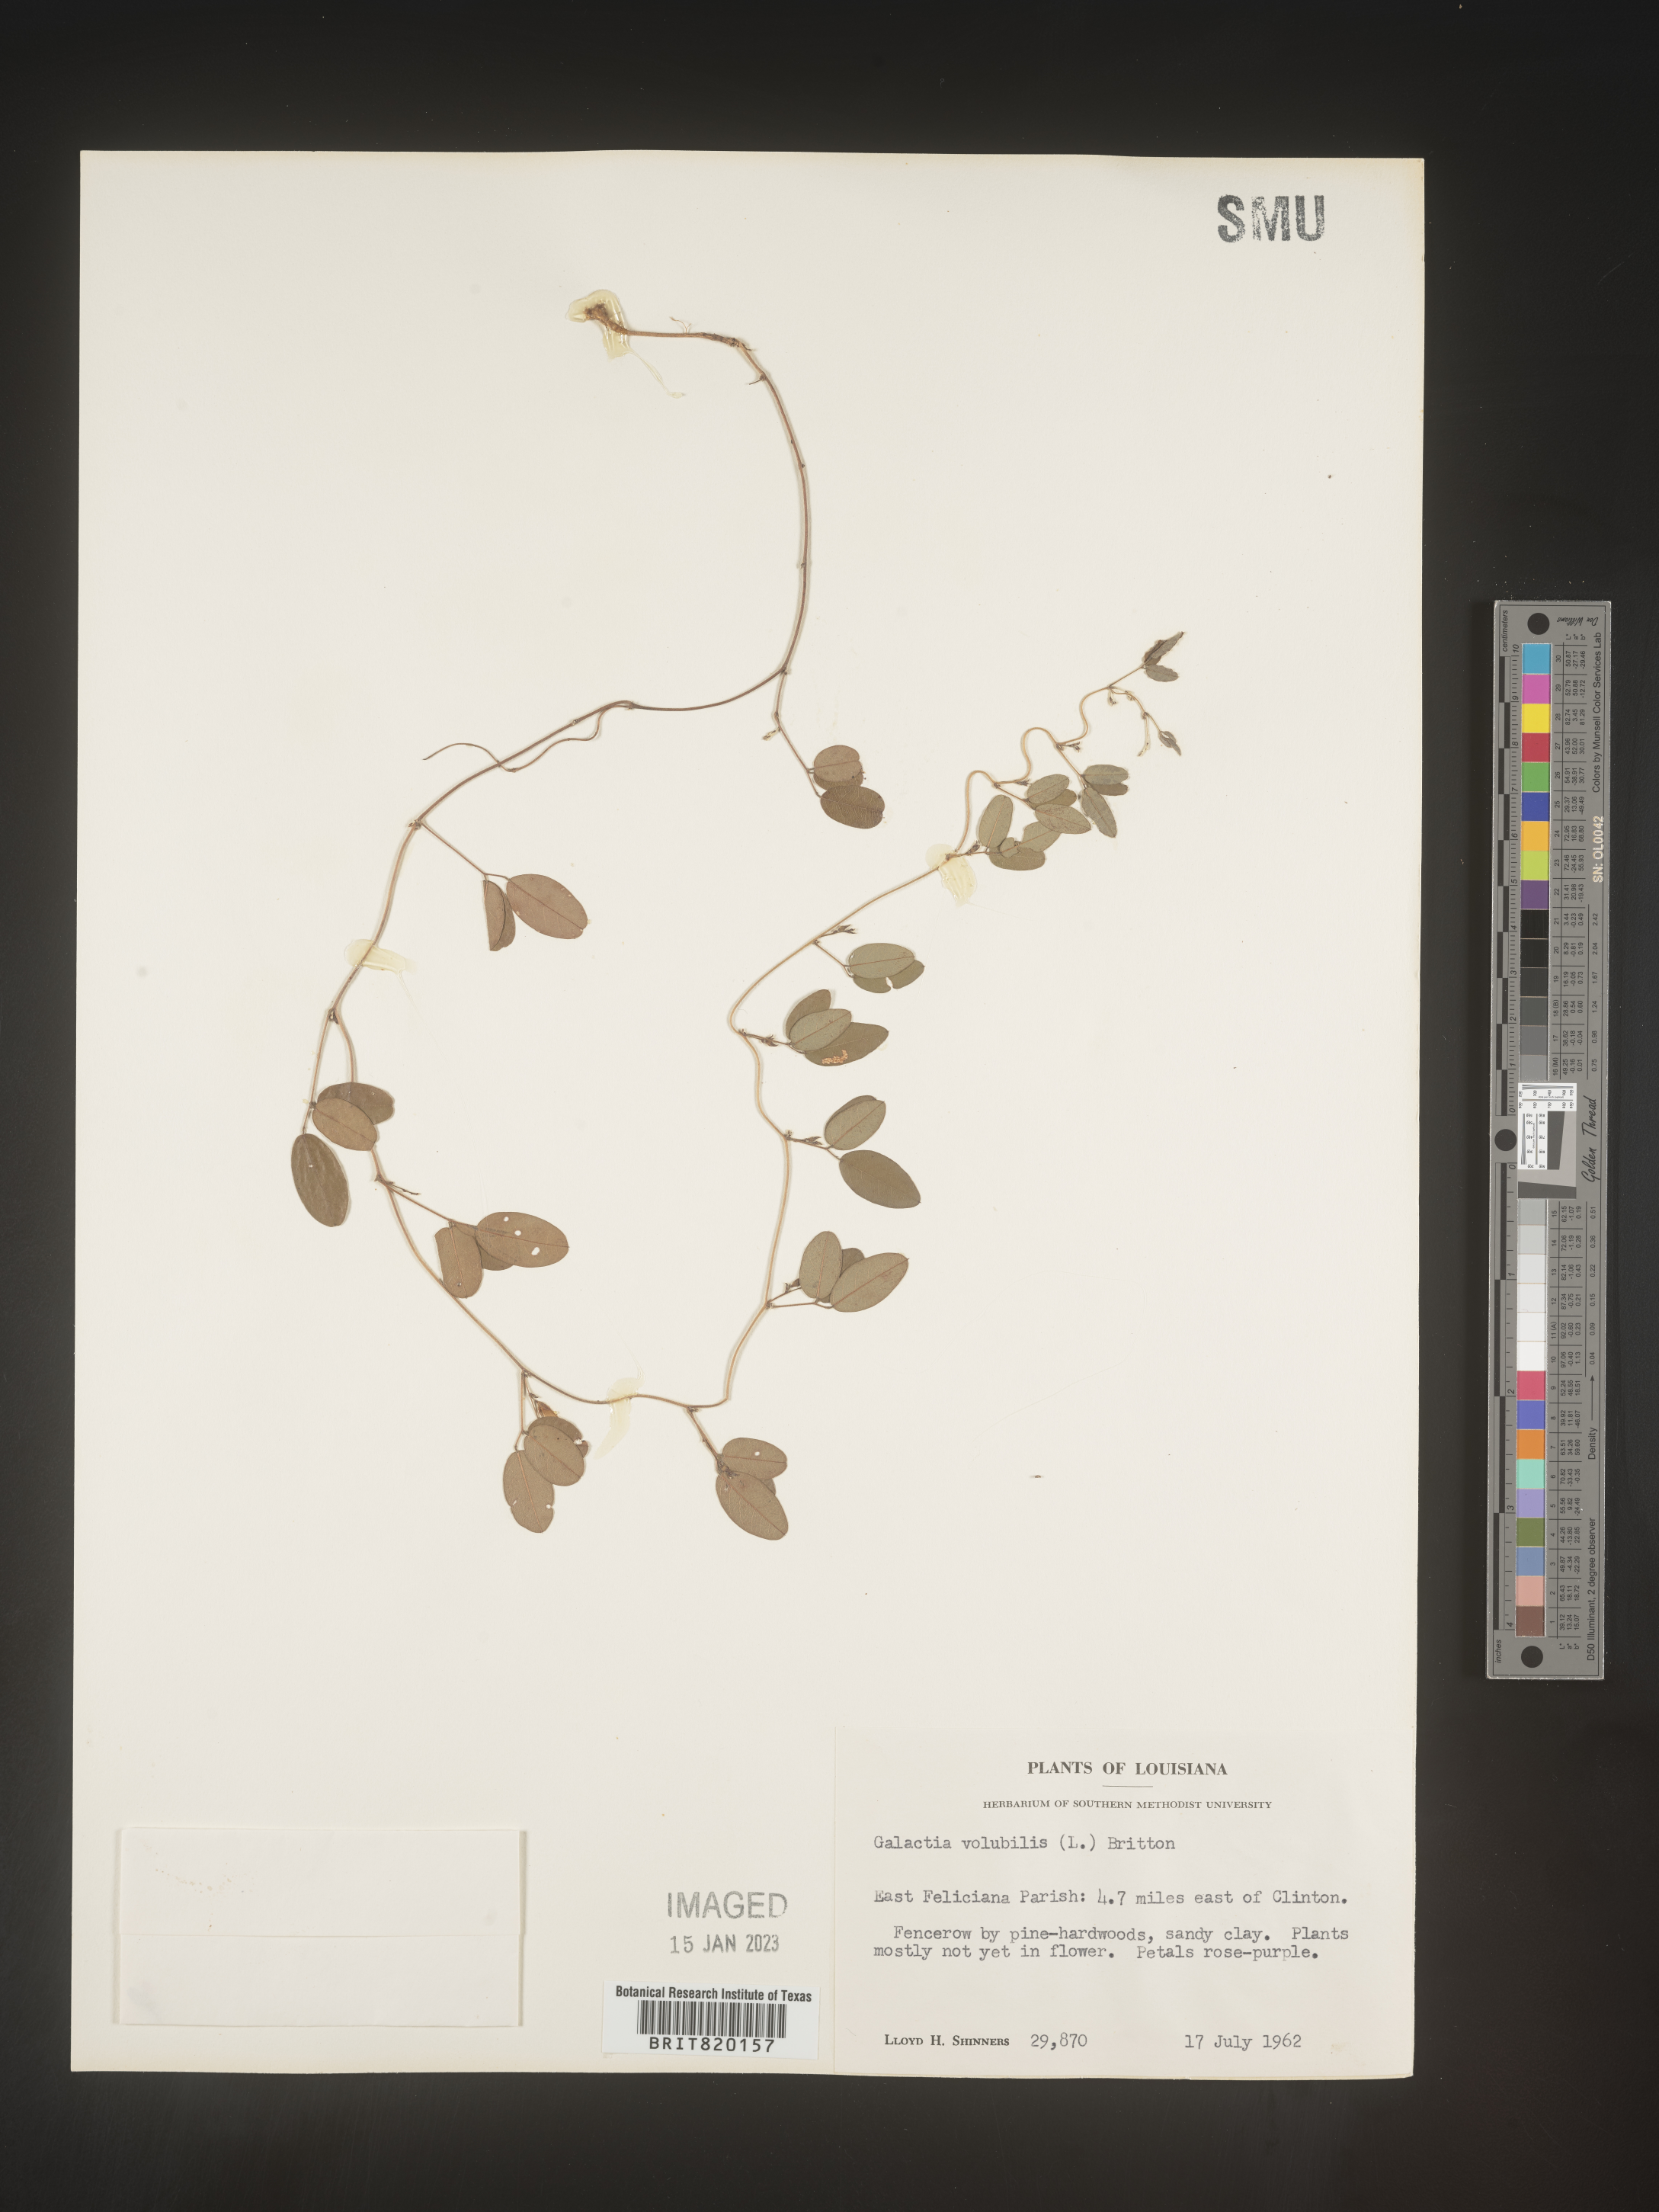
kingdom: Plantae
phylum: Tracheophyta
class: Magnoliopsida
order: Fabales
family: Fabaceae
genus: Galactia
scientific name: Galactia volubilis
